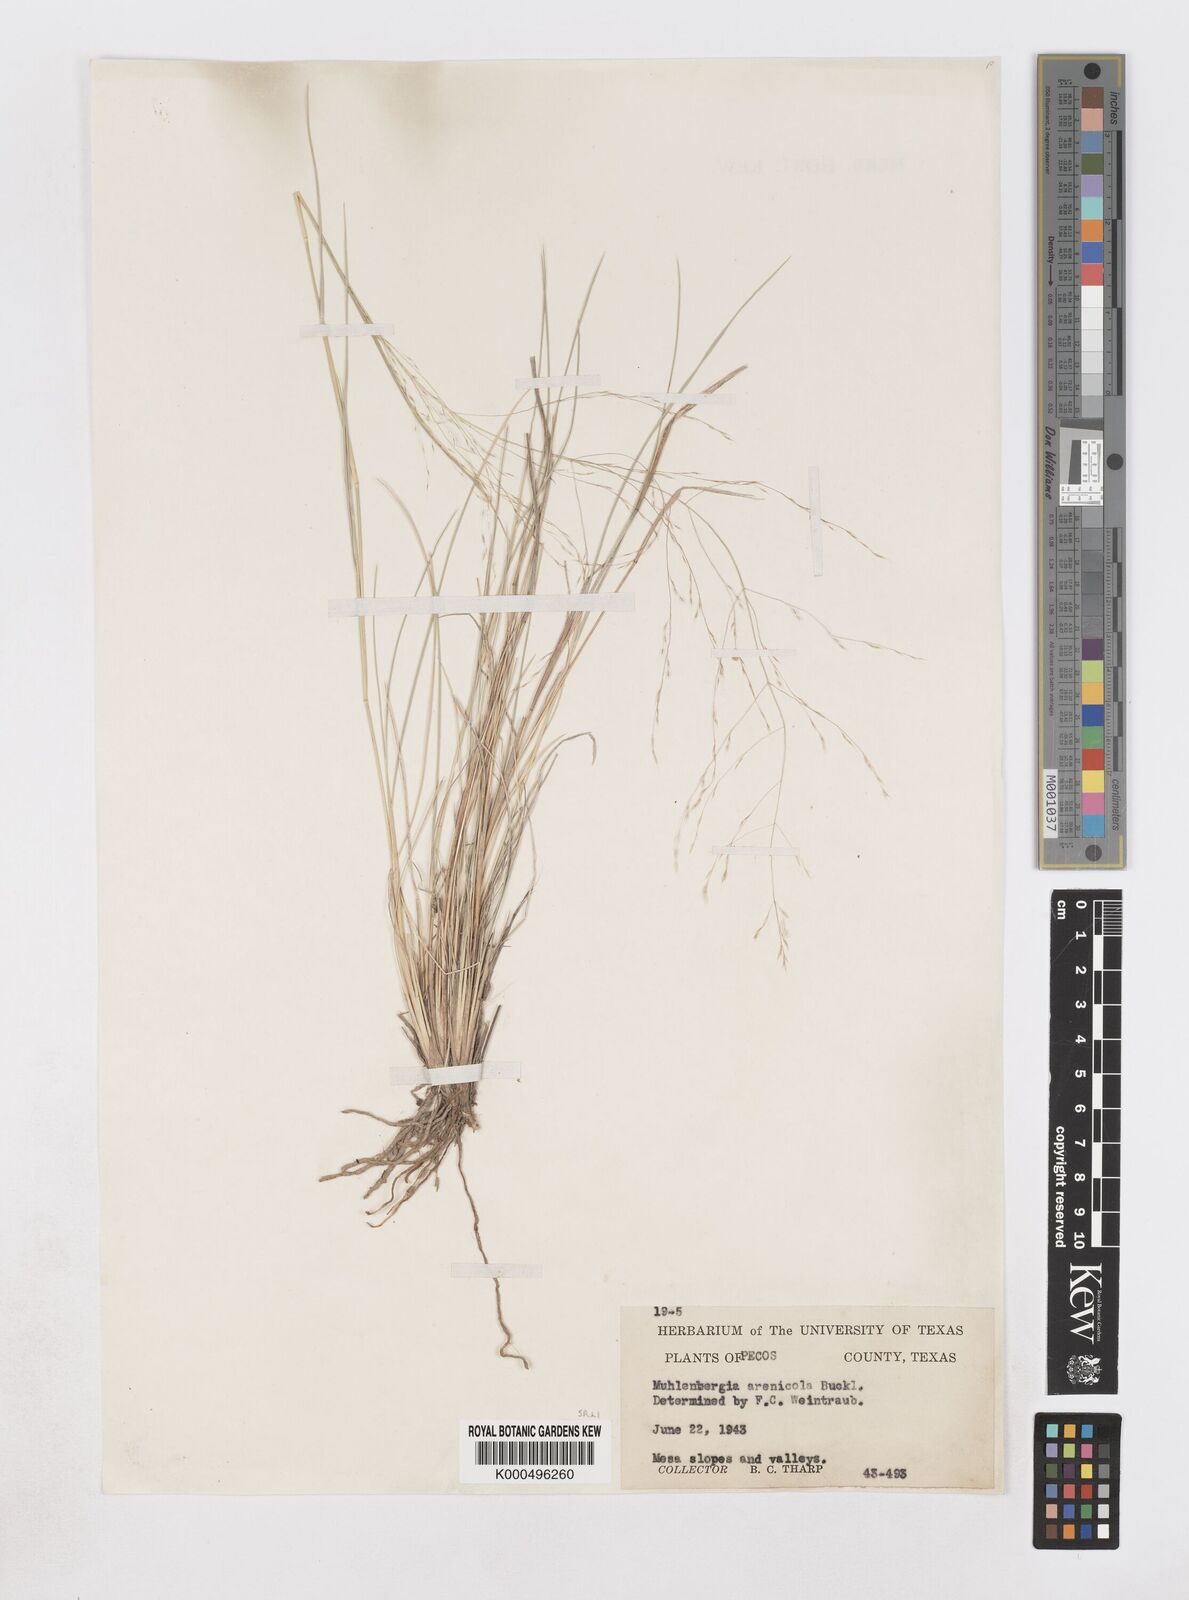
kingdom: Plantae
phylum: Tracheophyta
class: Liliopsida
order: Poales
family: Poaceae
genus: Muhlenbergia
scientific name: Muhlenbergia arenicola
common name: Sand muhly
